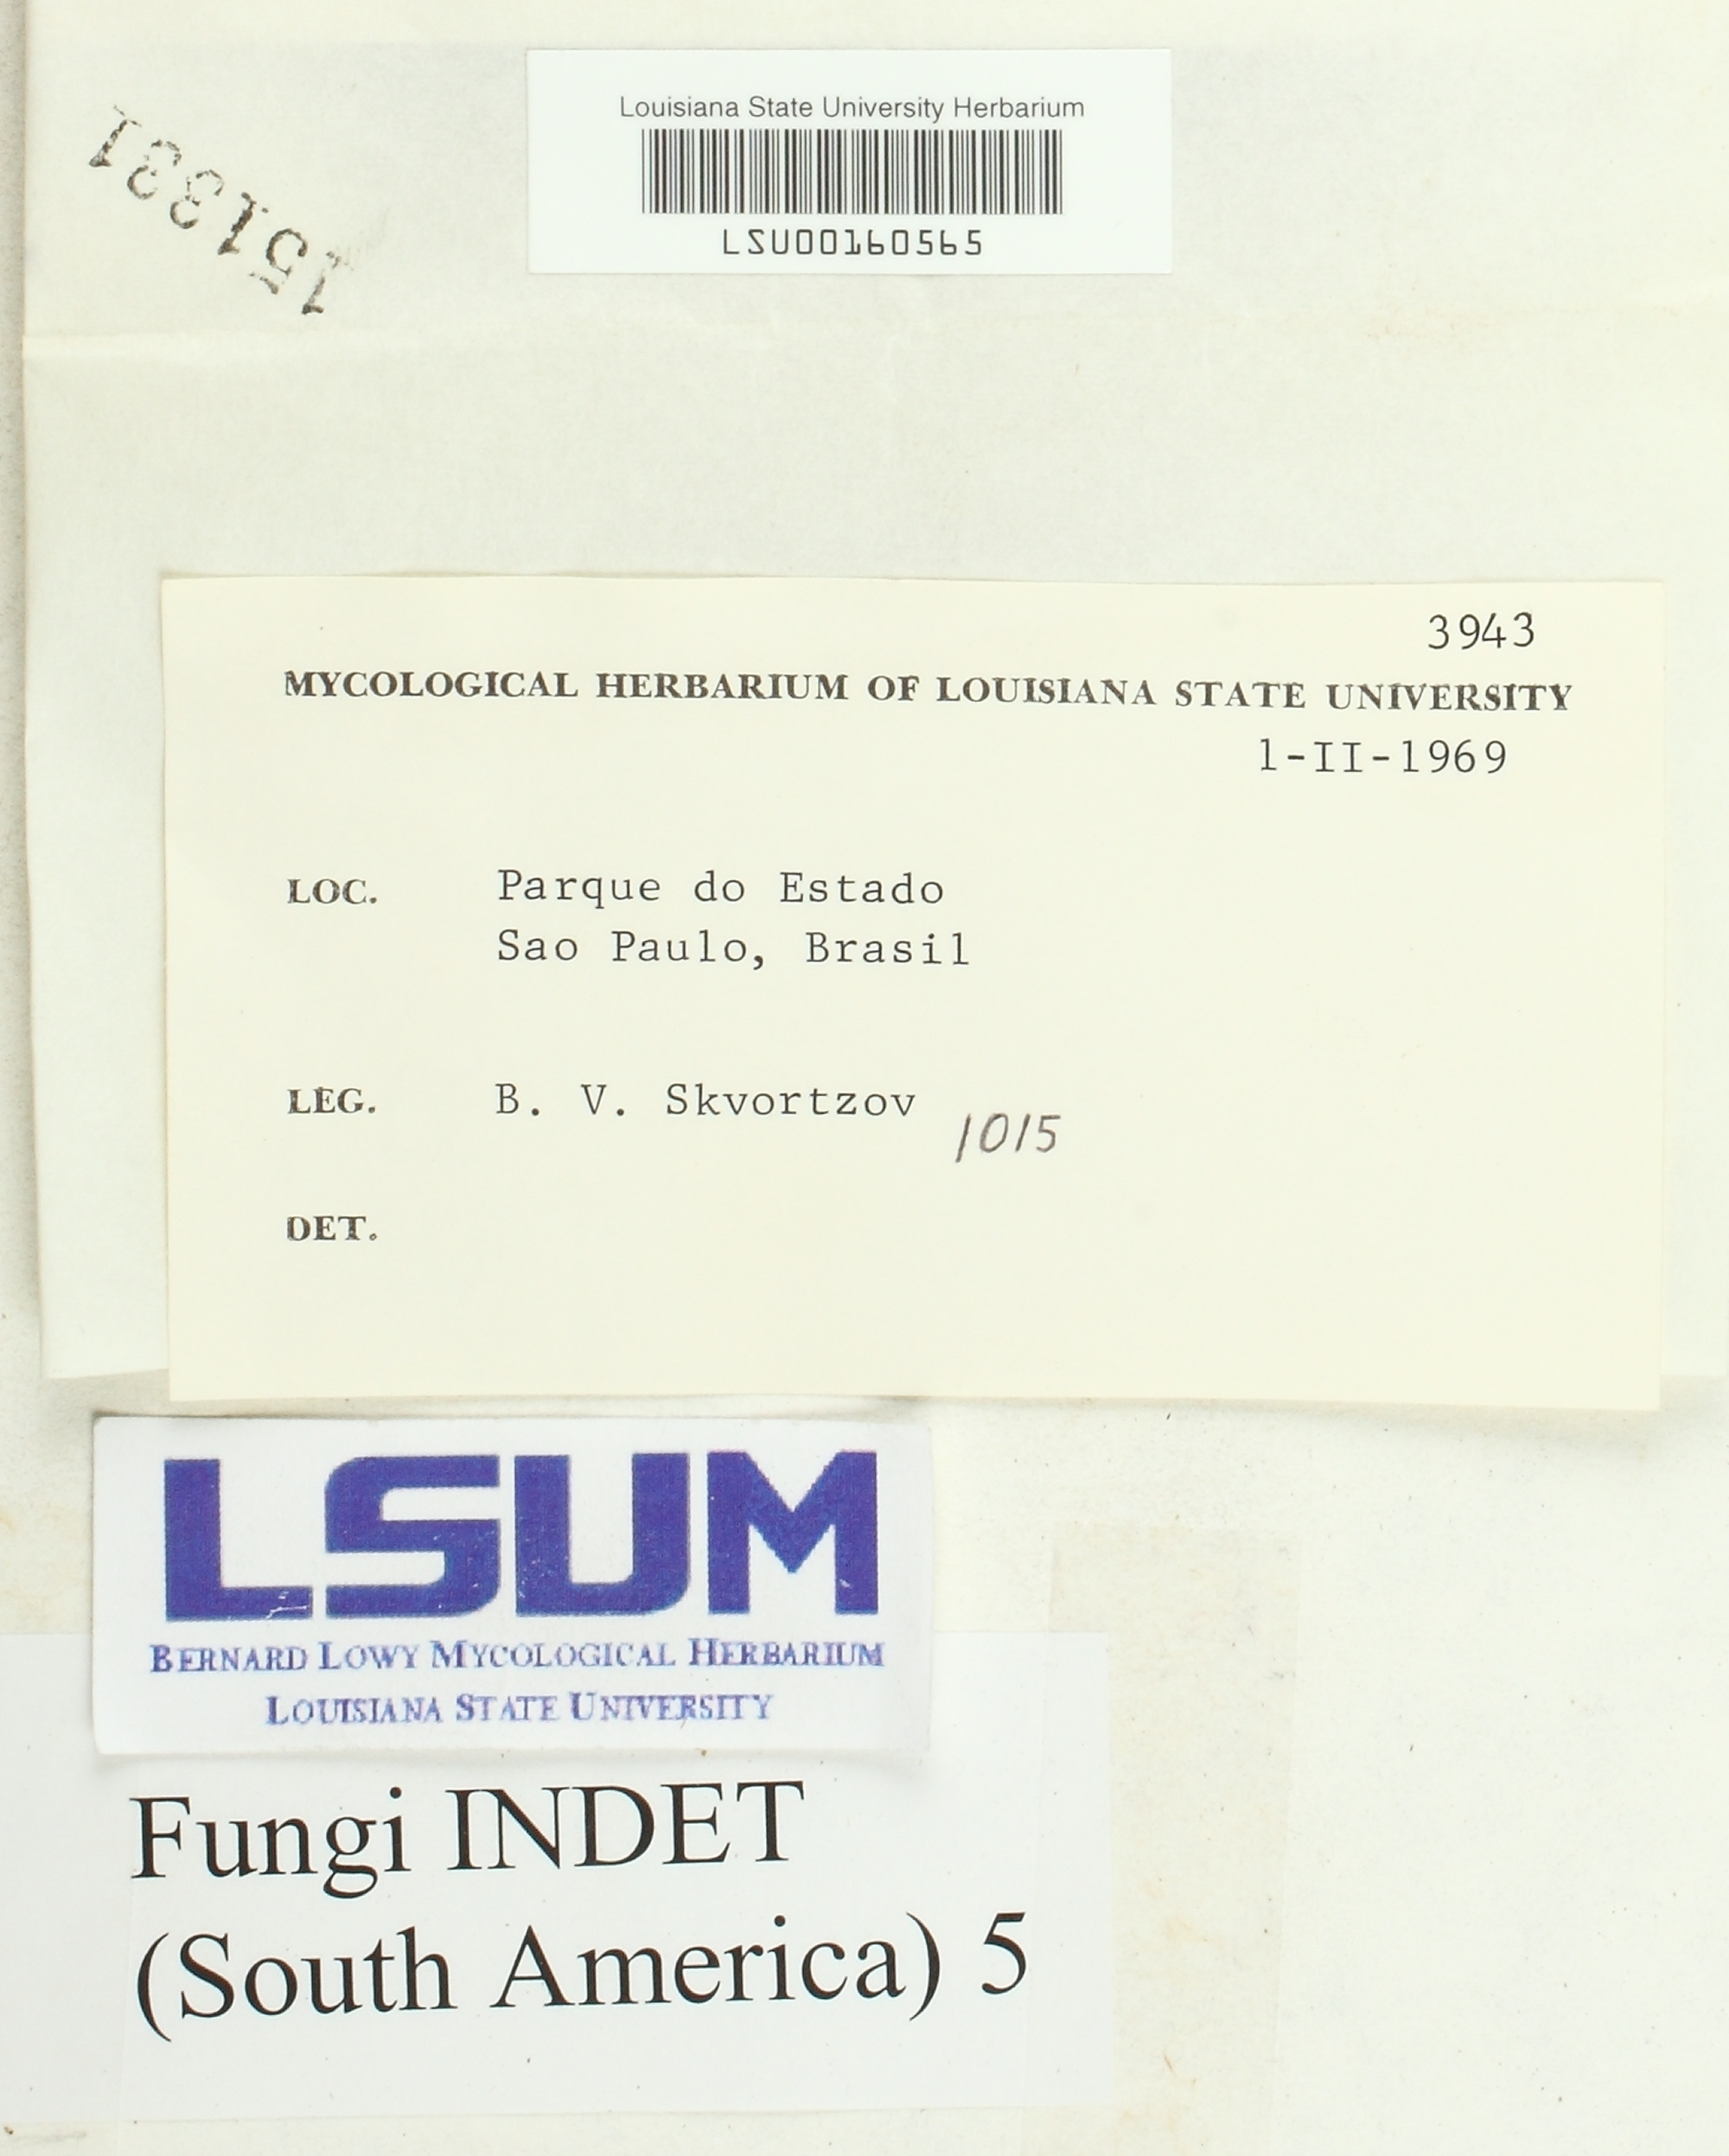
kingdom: Fungi
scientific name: Fungi
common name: Fungi
